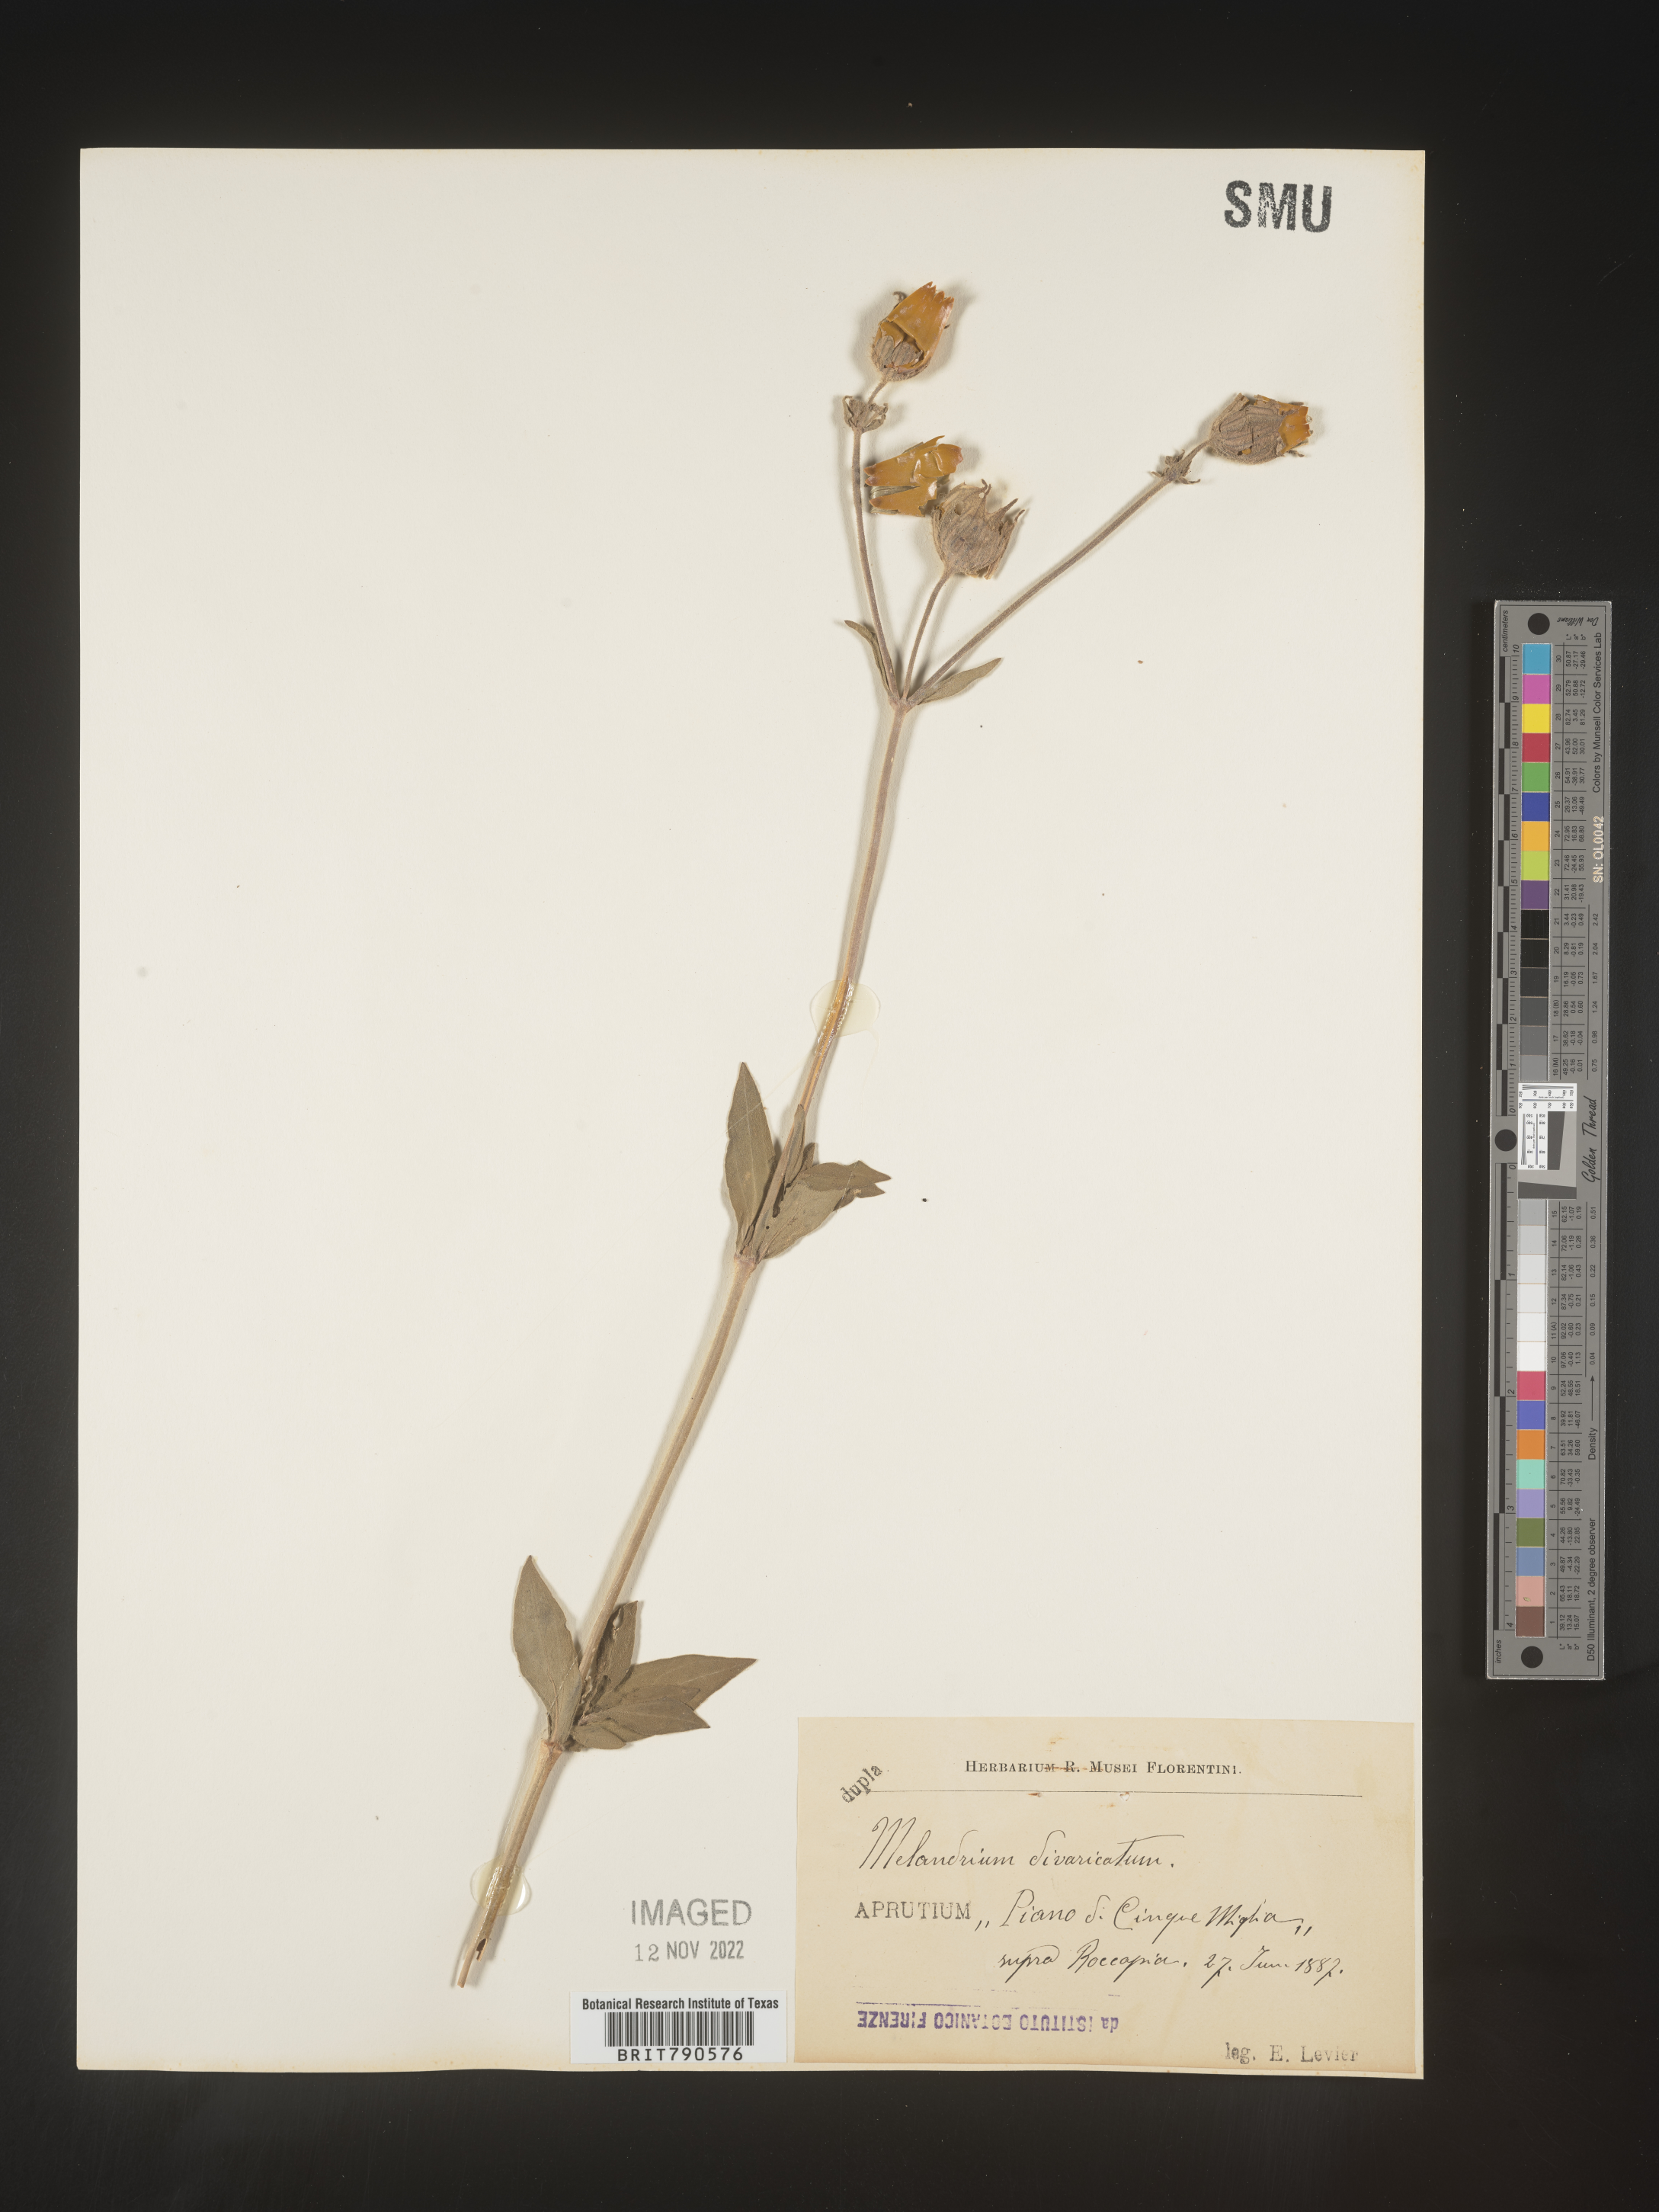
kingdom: Plantae
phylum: Tracheophyta
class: Magnoliopsida
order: Caryophyllales
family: Caryophyllaceae
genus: Silene
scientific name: Silene
